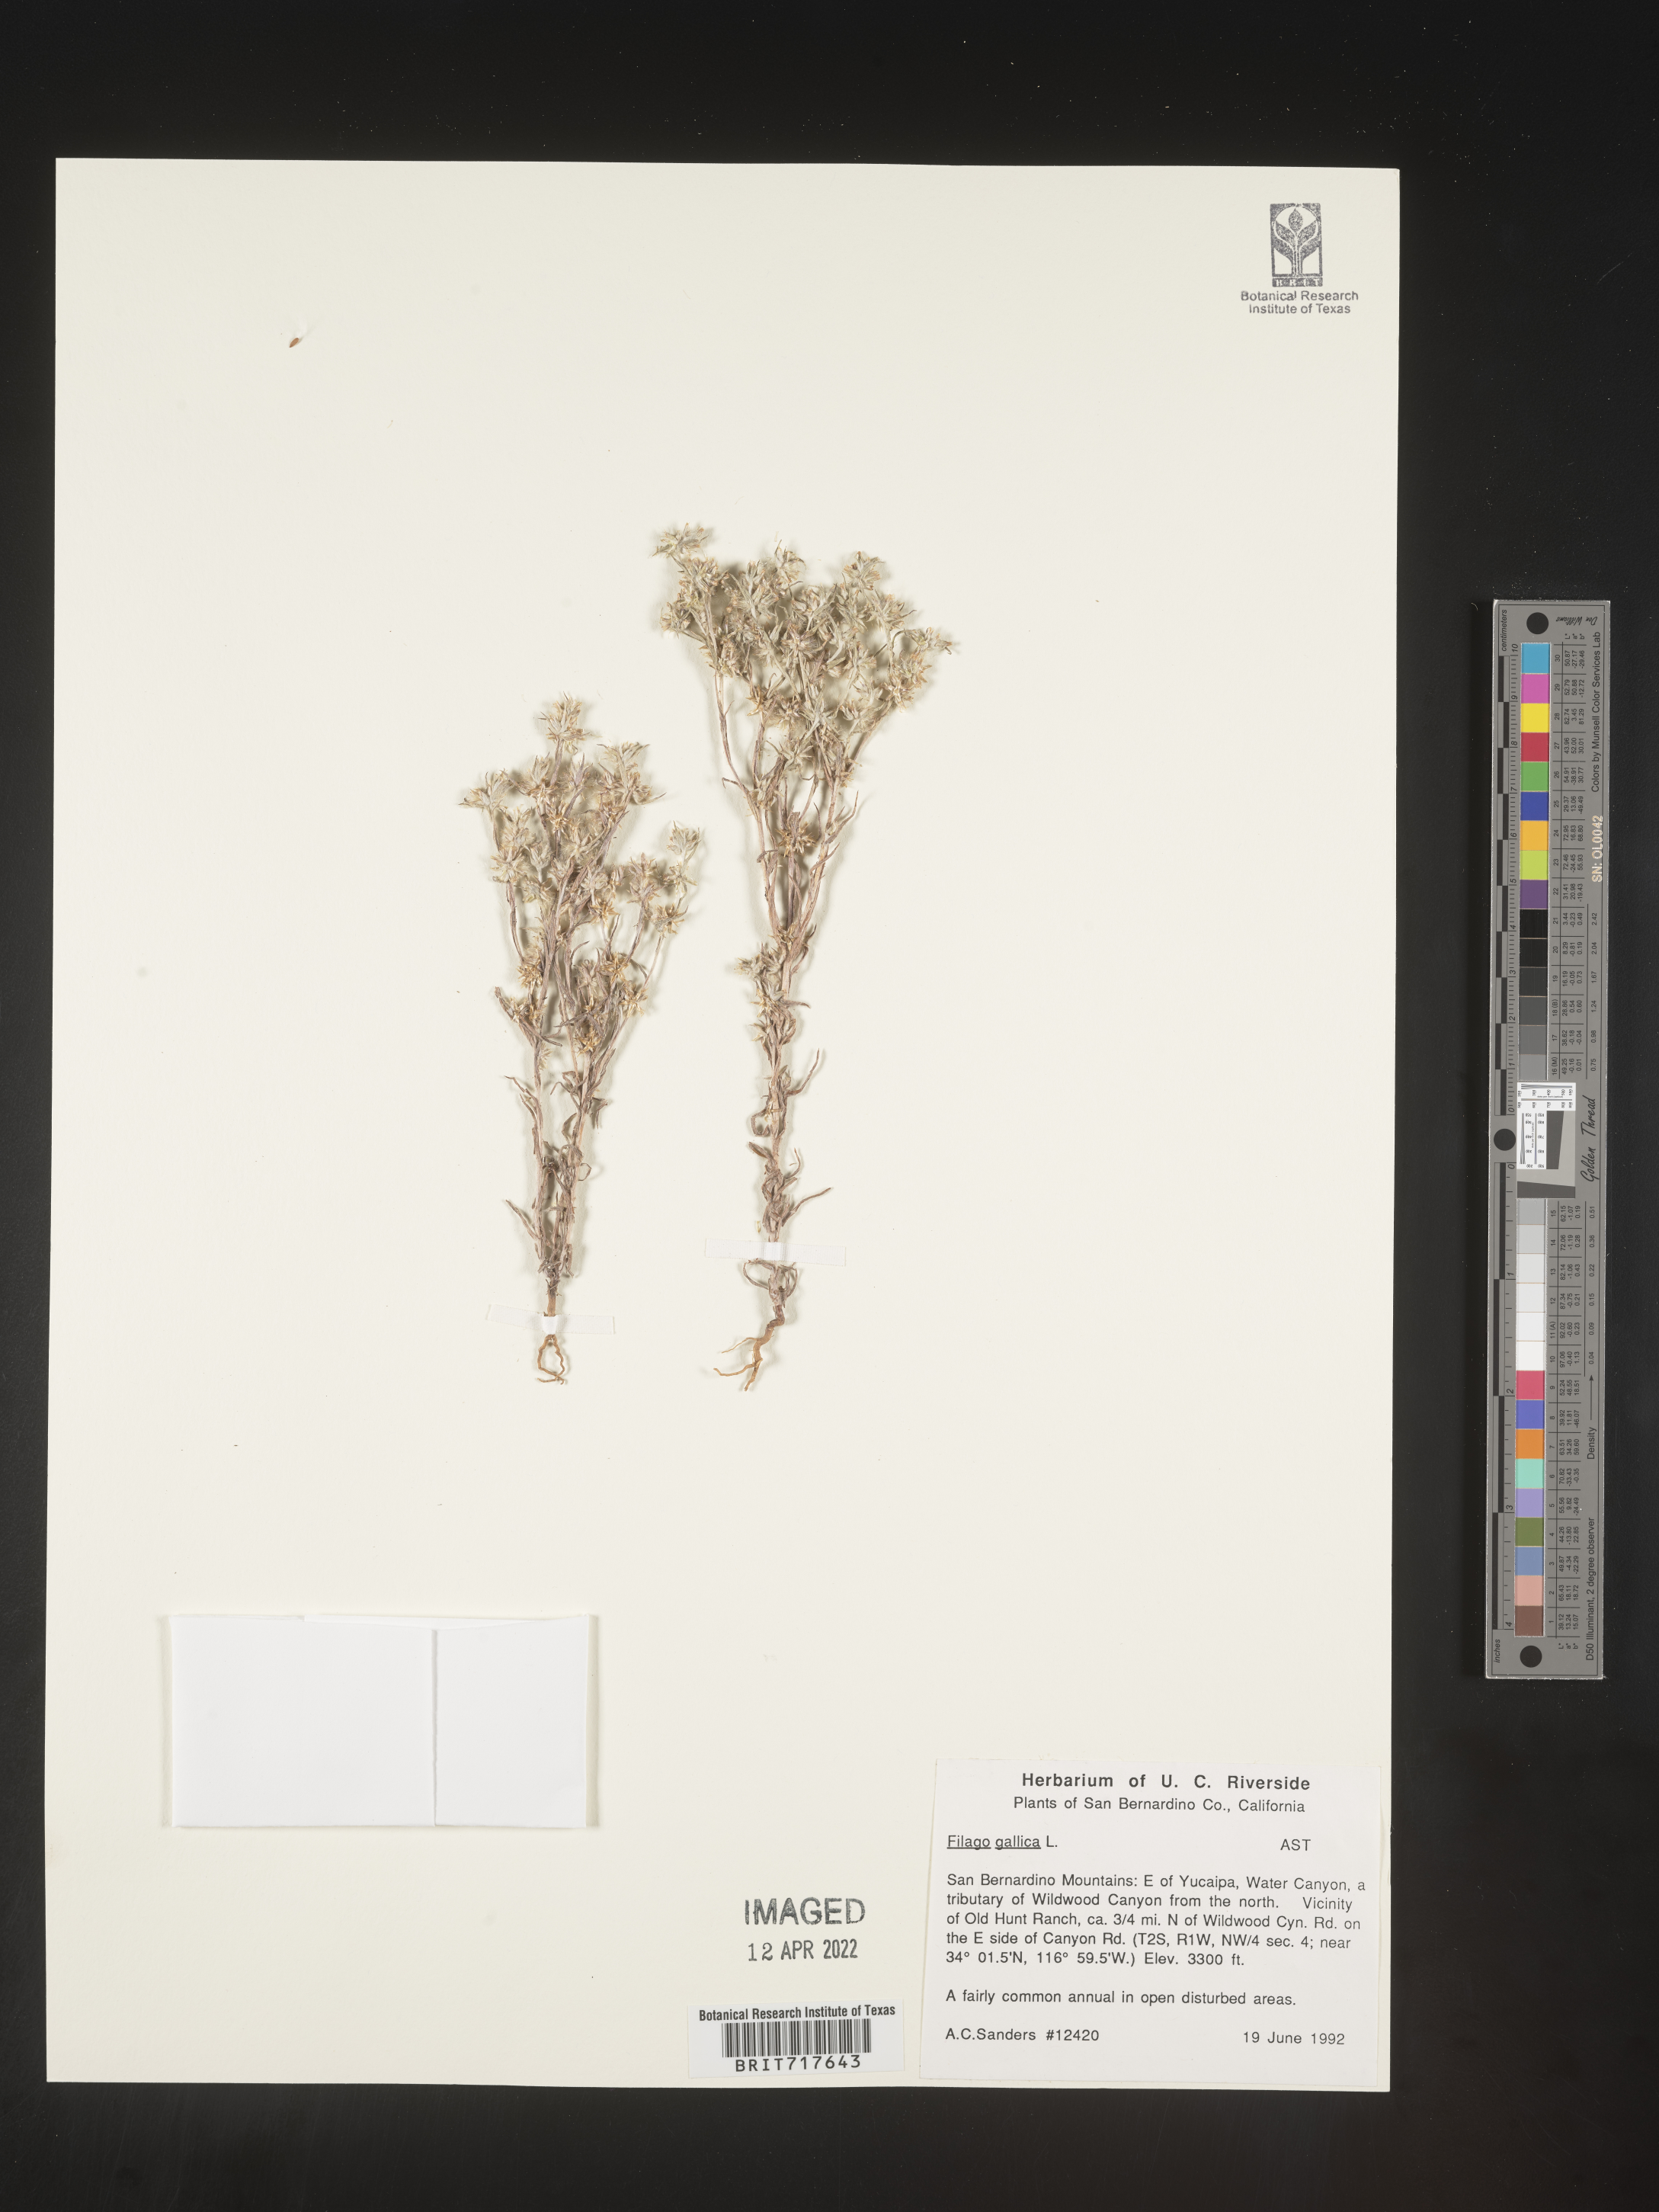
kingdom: Plantae
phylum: Tracheophyta
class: Magnoliopsida
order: Asterales
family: Asteraceae
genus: Logfia
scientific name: Logfia gallica
